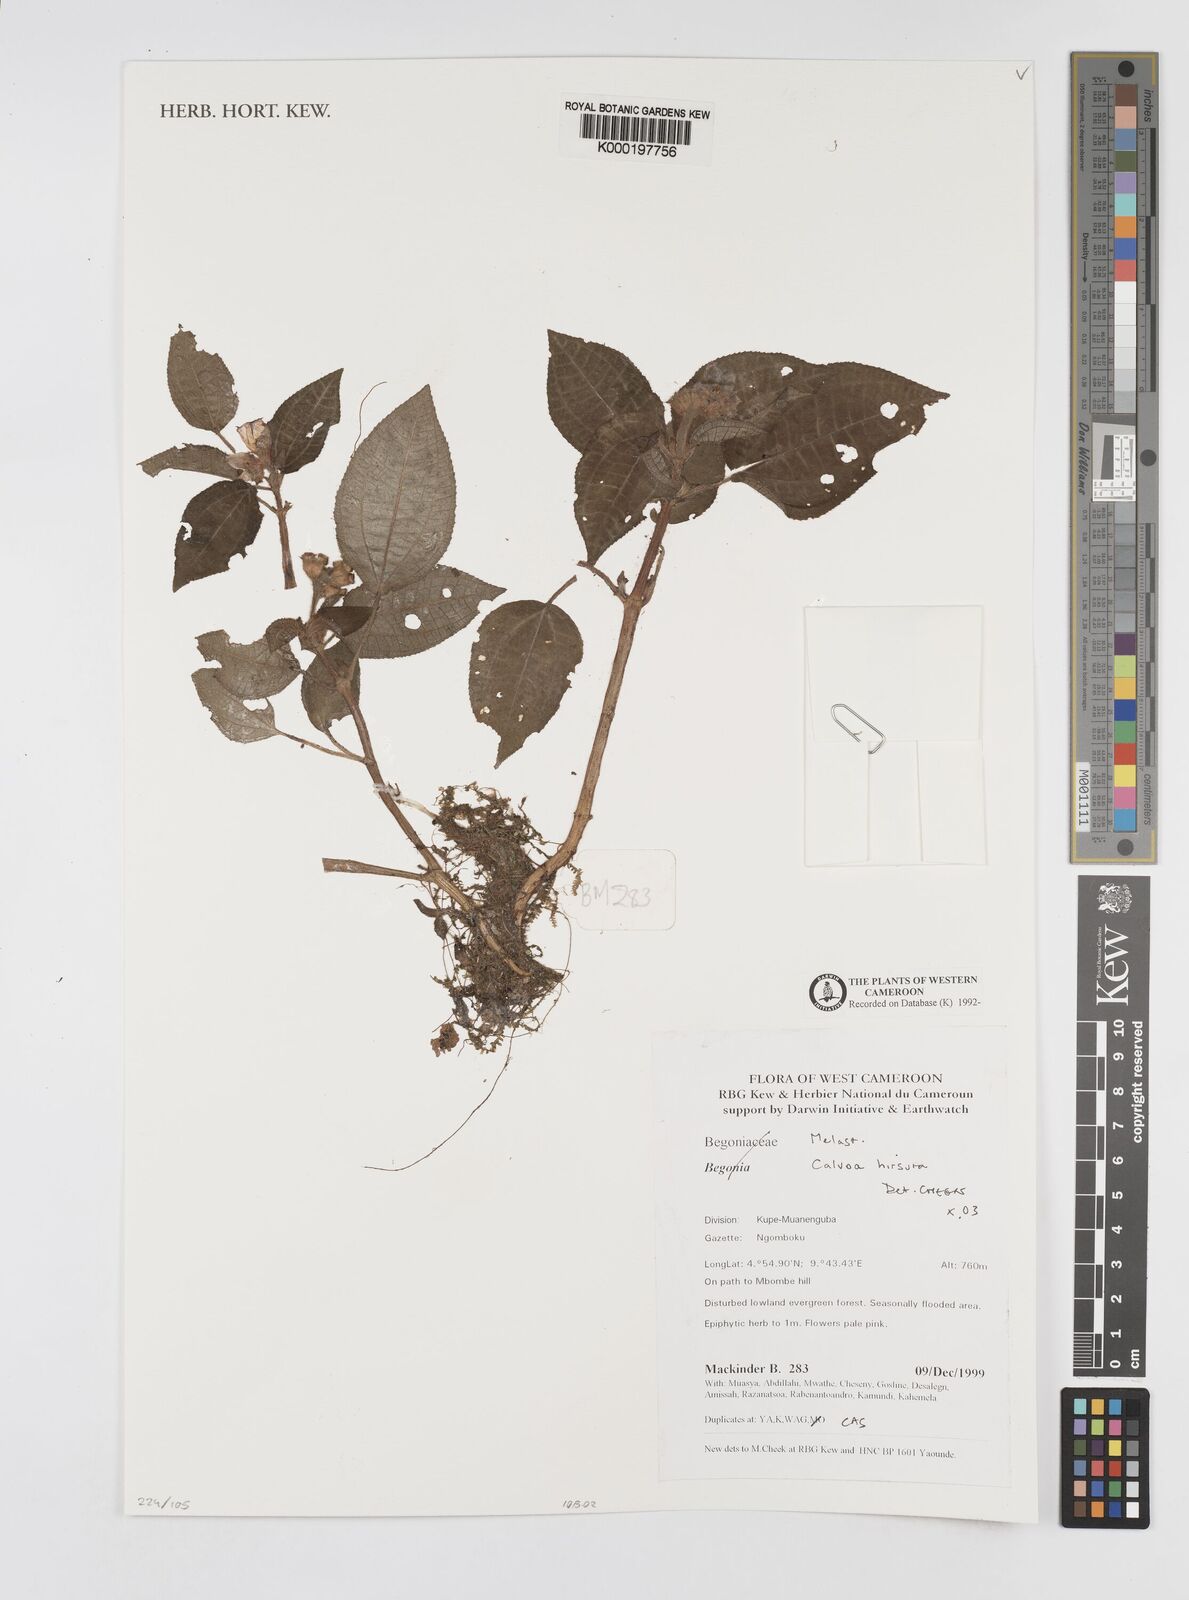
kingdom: Plantae
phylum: Tracheophyta
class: Magnoliopsida
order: Myrtales
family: Melastomataceae
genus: Calvoa
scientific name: Calvoa
